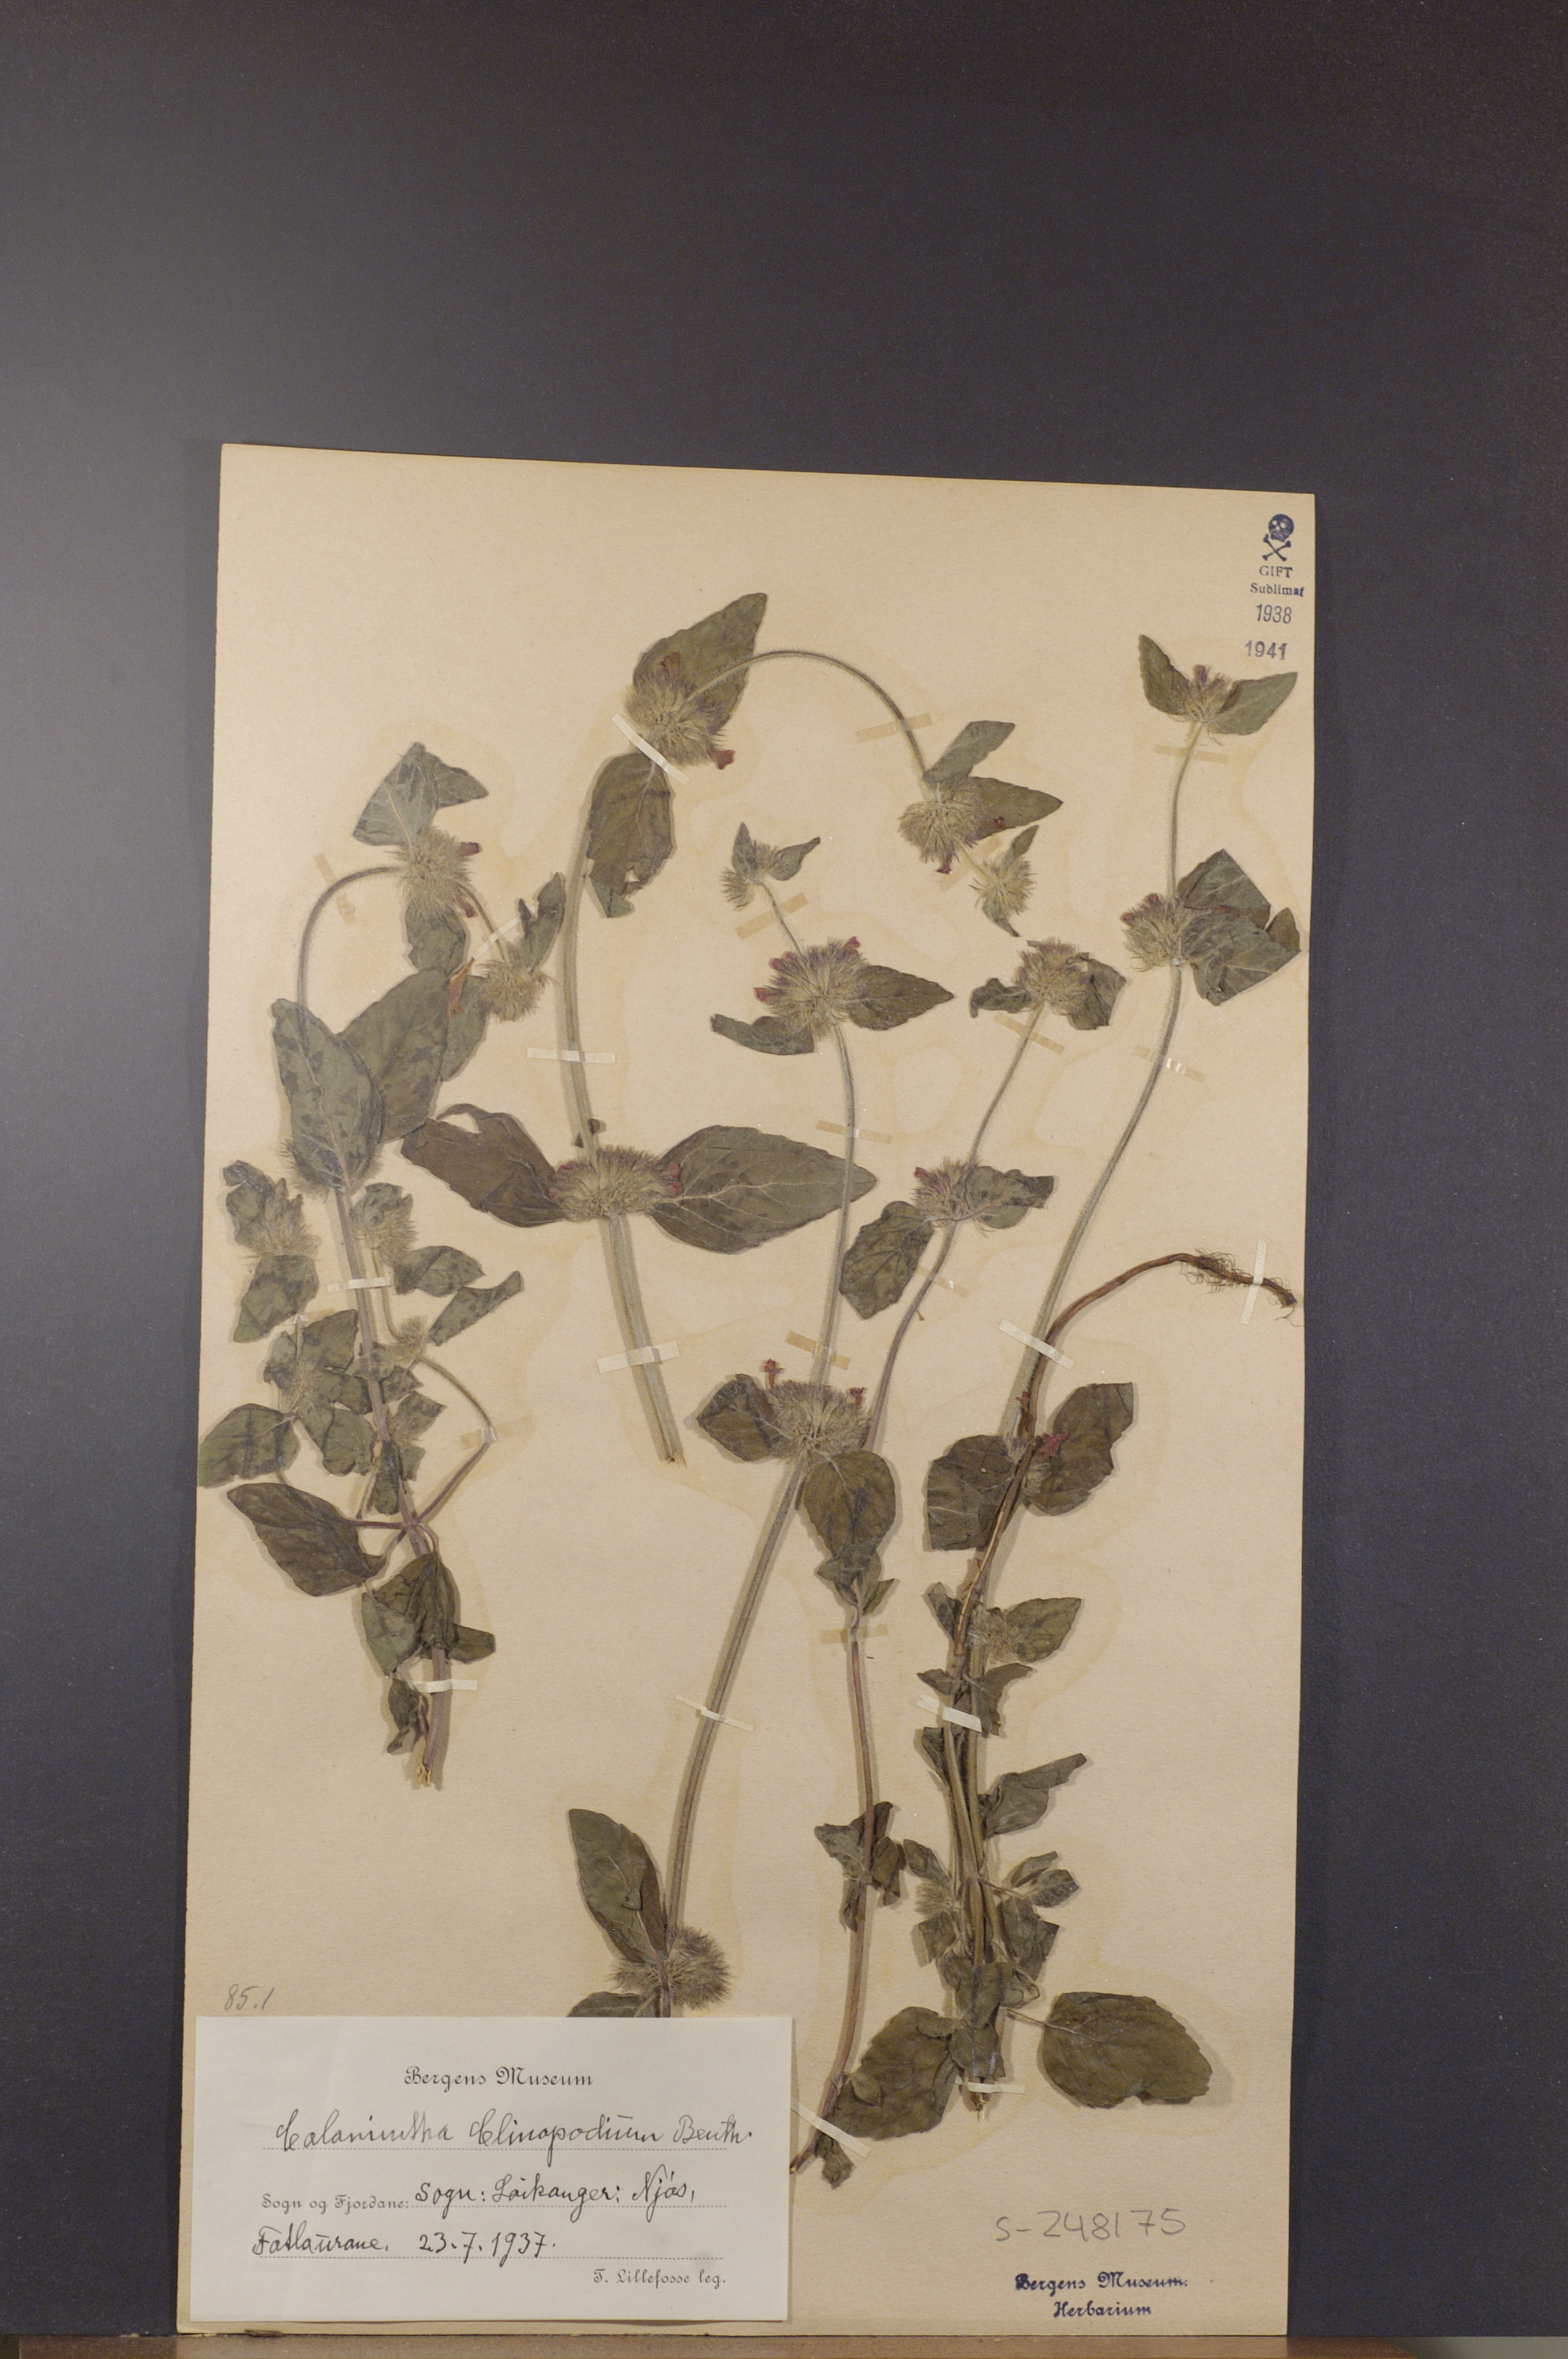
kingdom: Plantae
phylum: Tracheophyta
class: Magnoliopsida
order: Lamiales
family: Lamiaceae
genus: Clinopodium
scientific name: Clinopodium vulgare
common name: Wild basil
